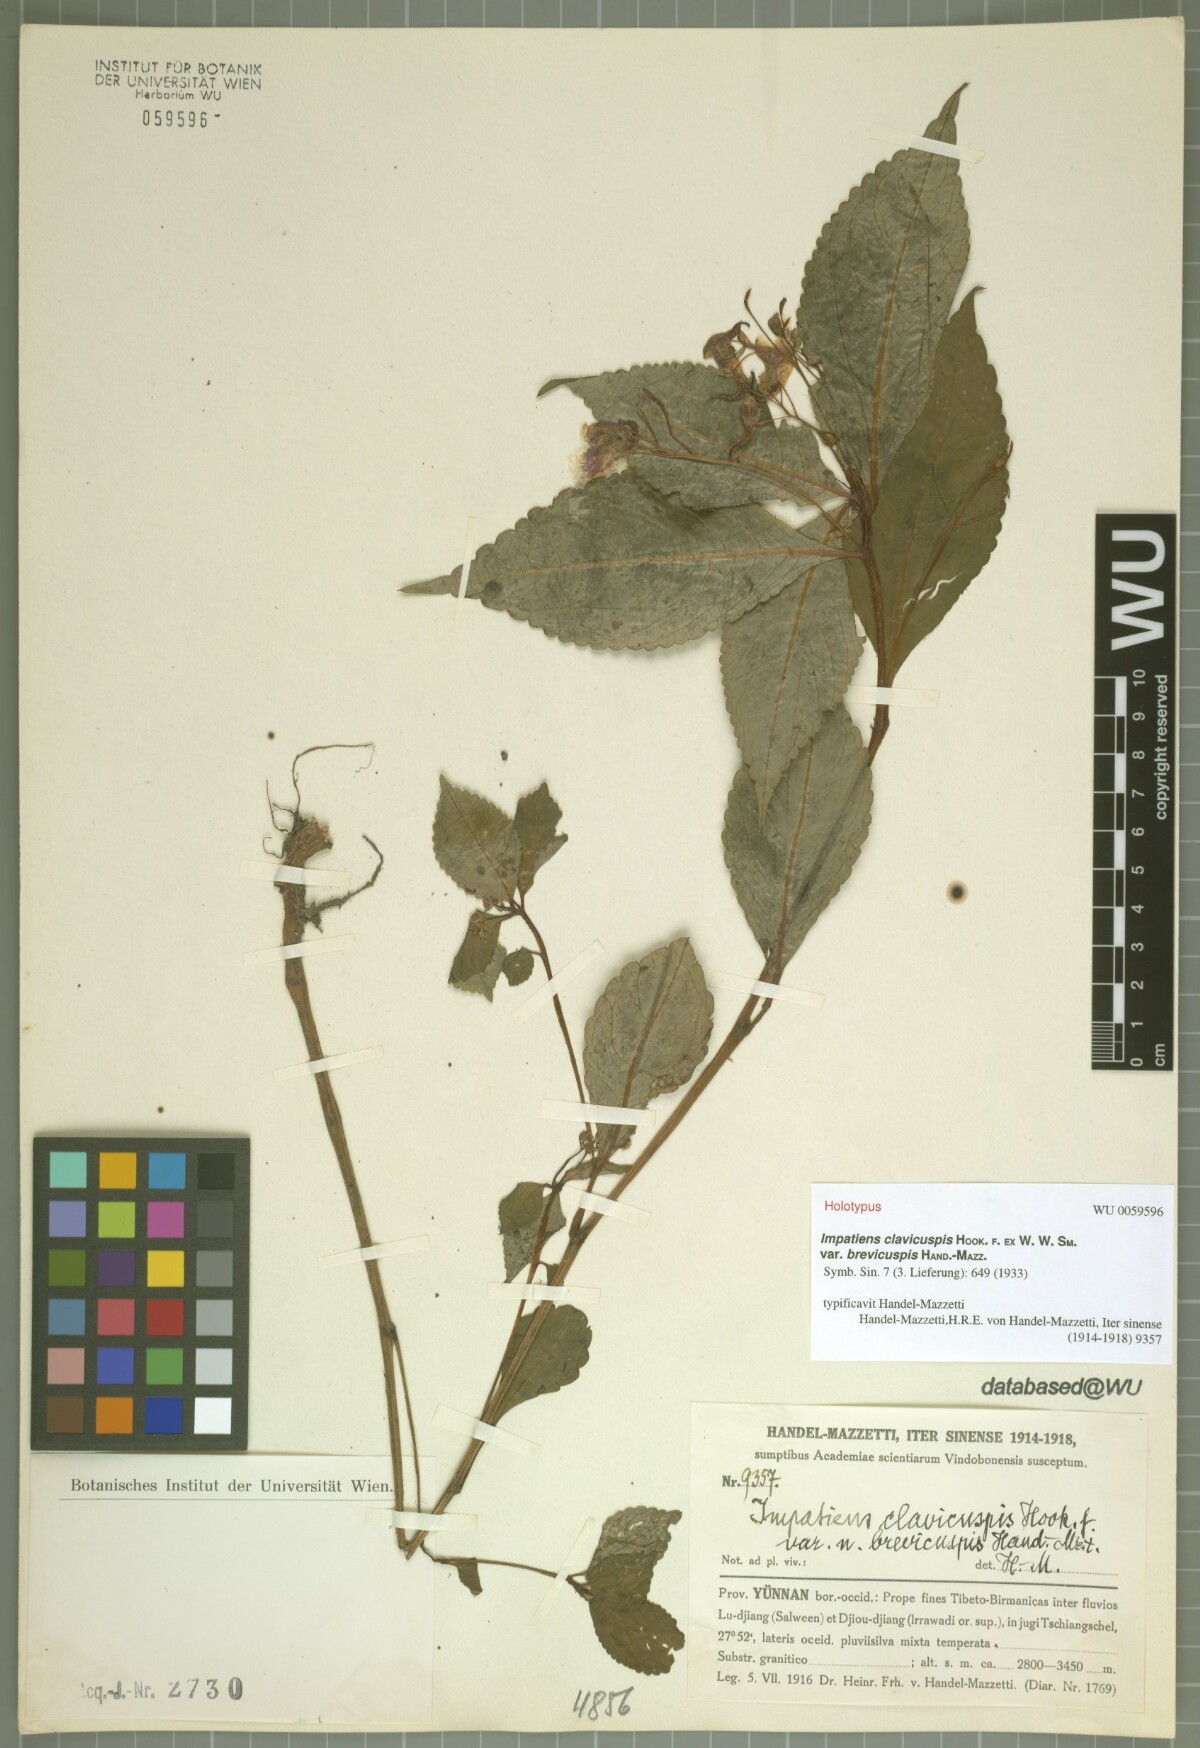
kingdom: Plantae
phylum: Tracheophyta
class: Magnoliopsida
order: Ericales
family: Balsaminaceae
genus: Impatiens
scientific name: Impatiens clavicuspis
